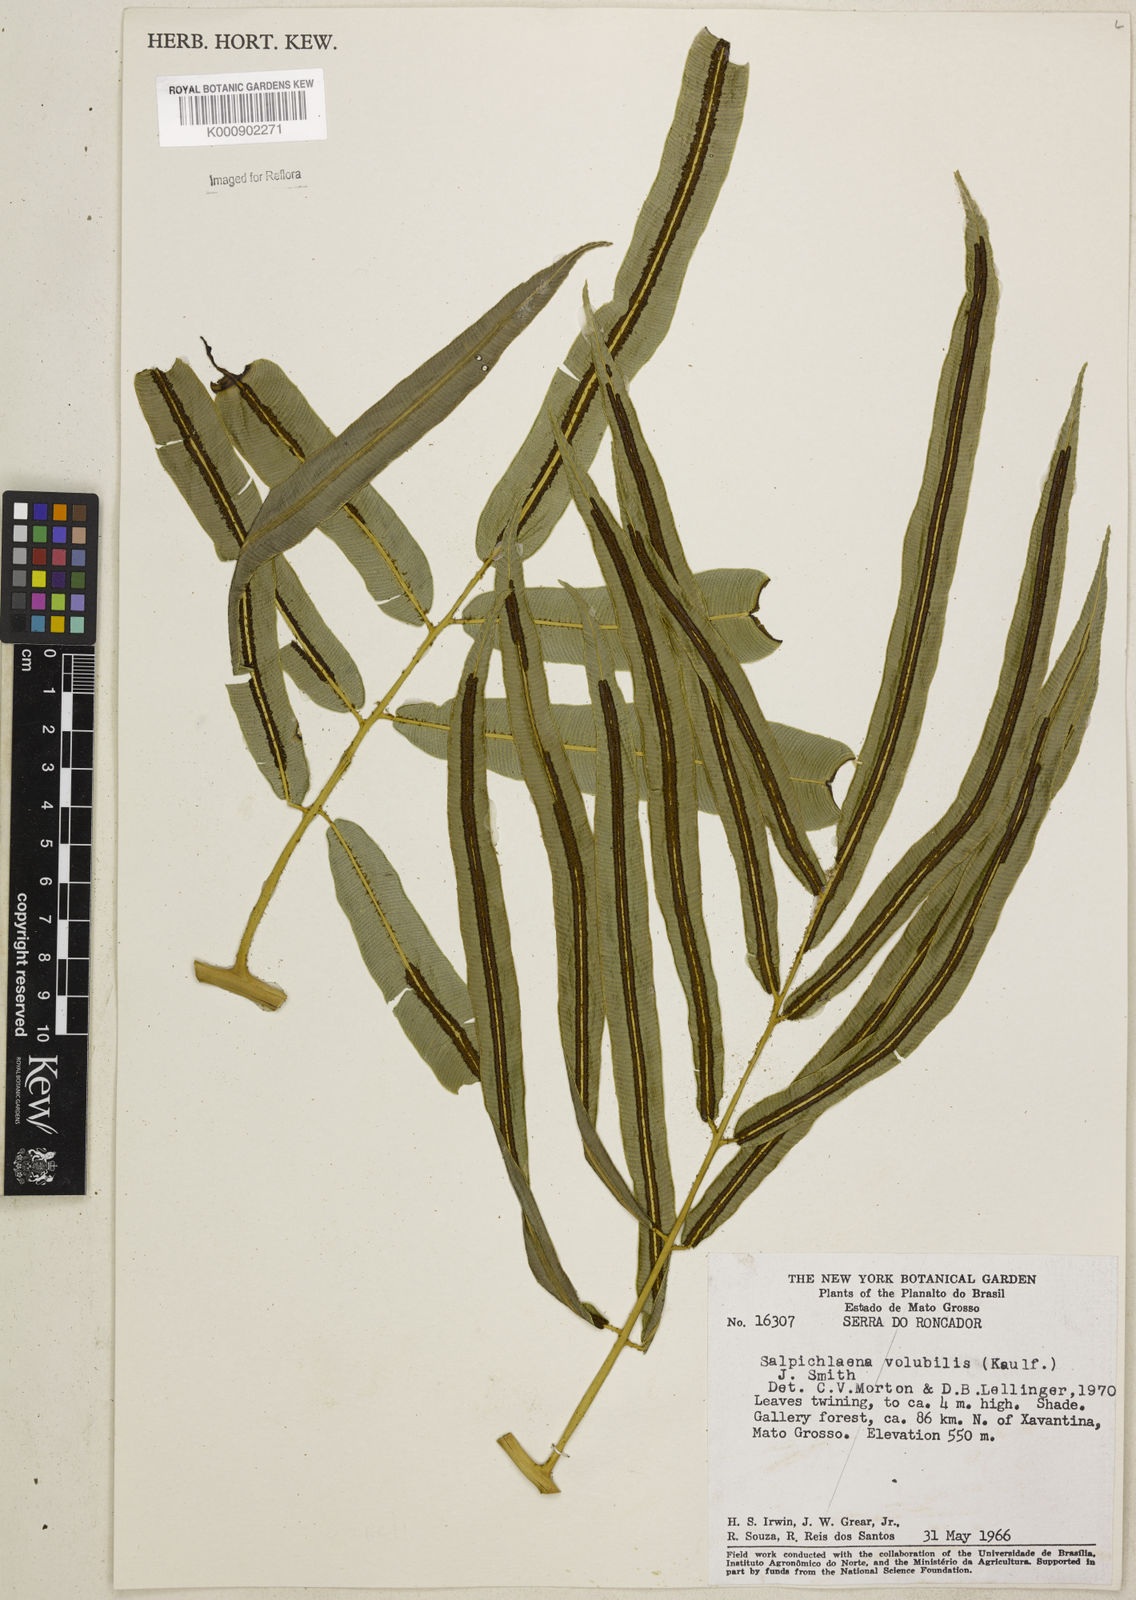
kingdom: Plantae
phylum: Tracheophyta
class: Polypodiopsida
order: Polypodiales
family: Blechnaceae
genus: Salpichlaena
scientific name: Salpichlaena volubilis
